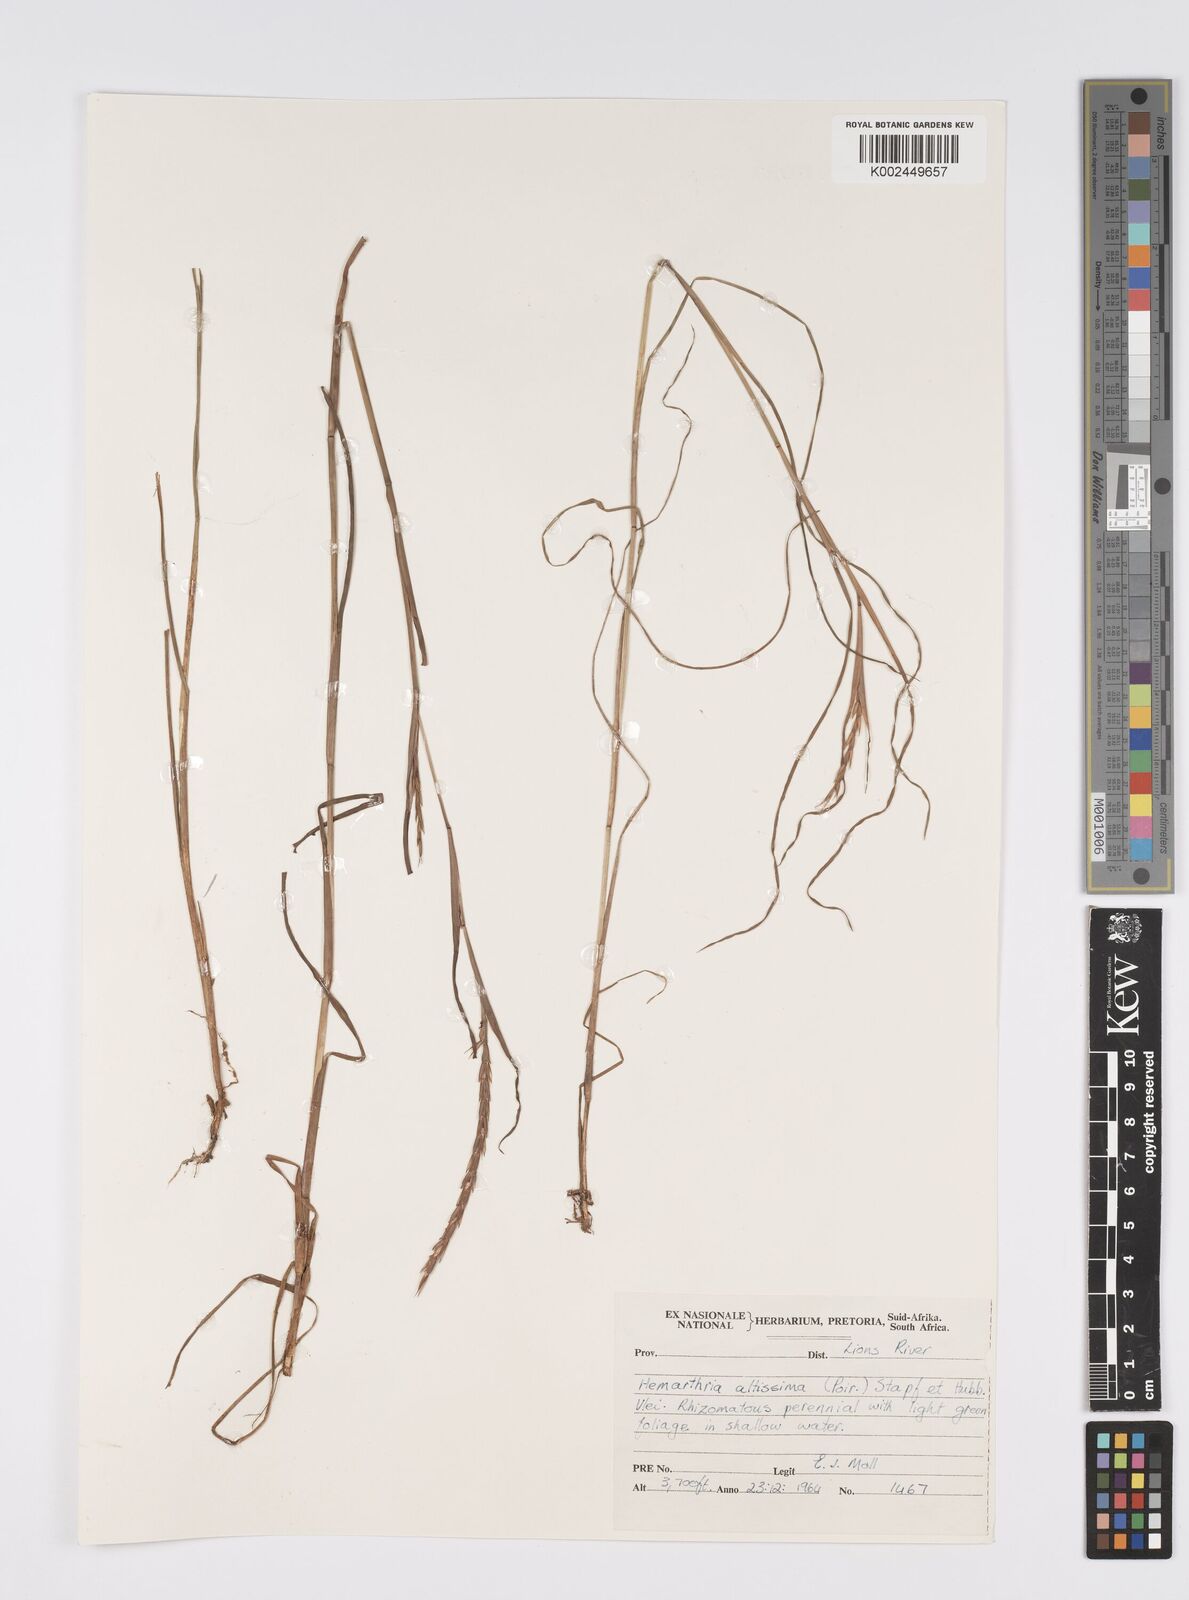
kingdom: Plantae
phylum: Tracheophyta
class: Liliopsida
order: Poales
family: Poaceae
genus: Hemarthria
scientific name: Hemarthria altissima
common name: African jointgrass
